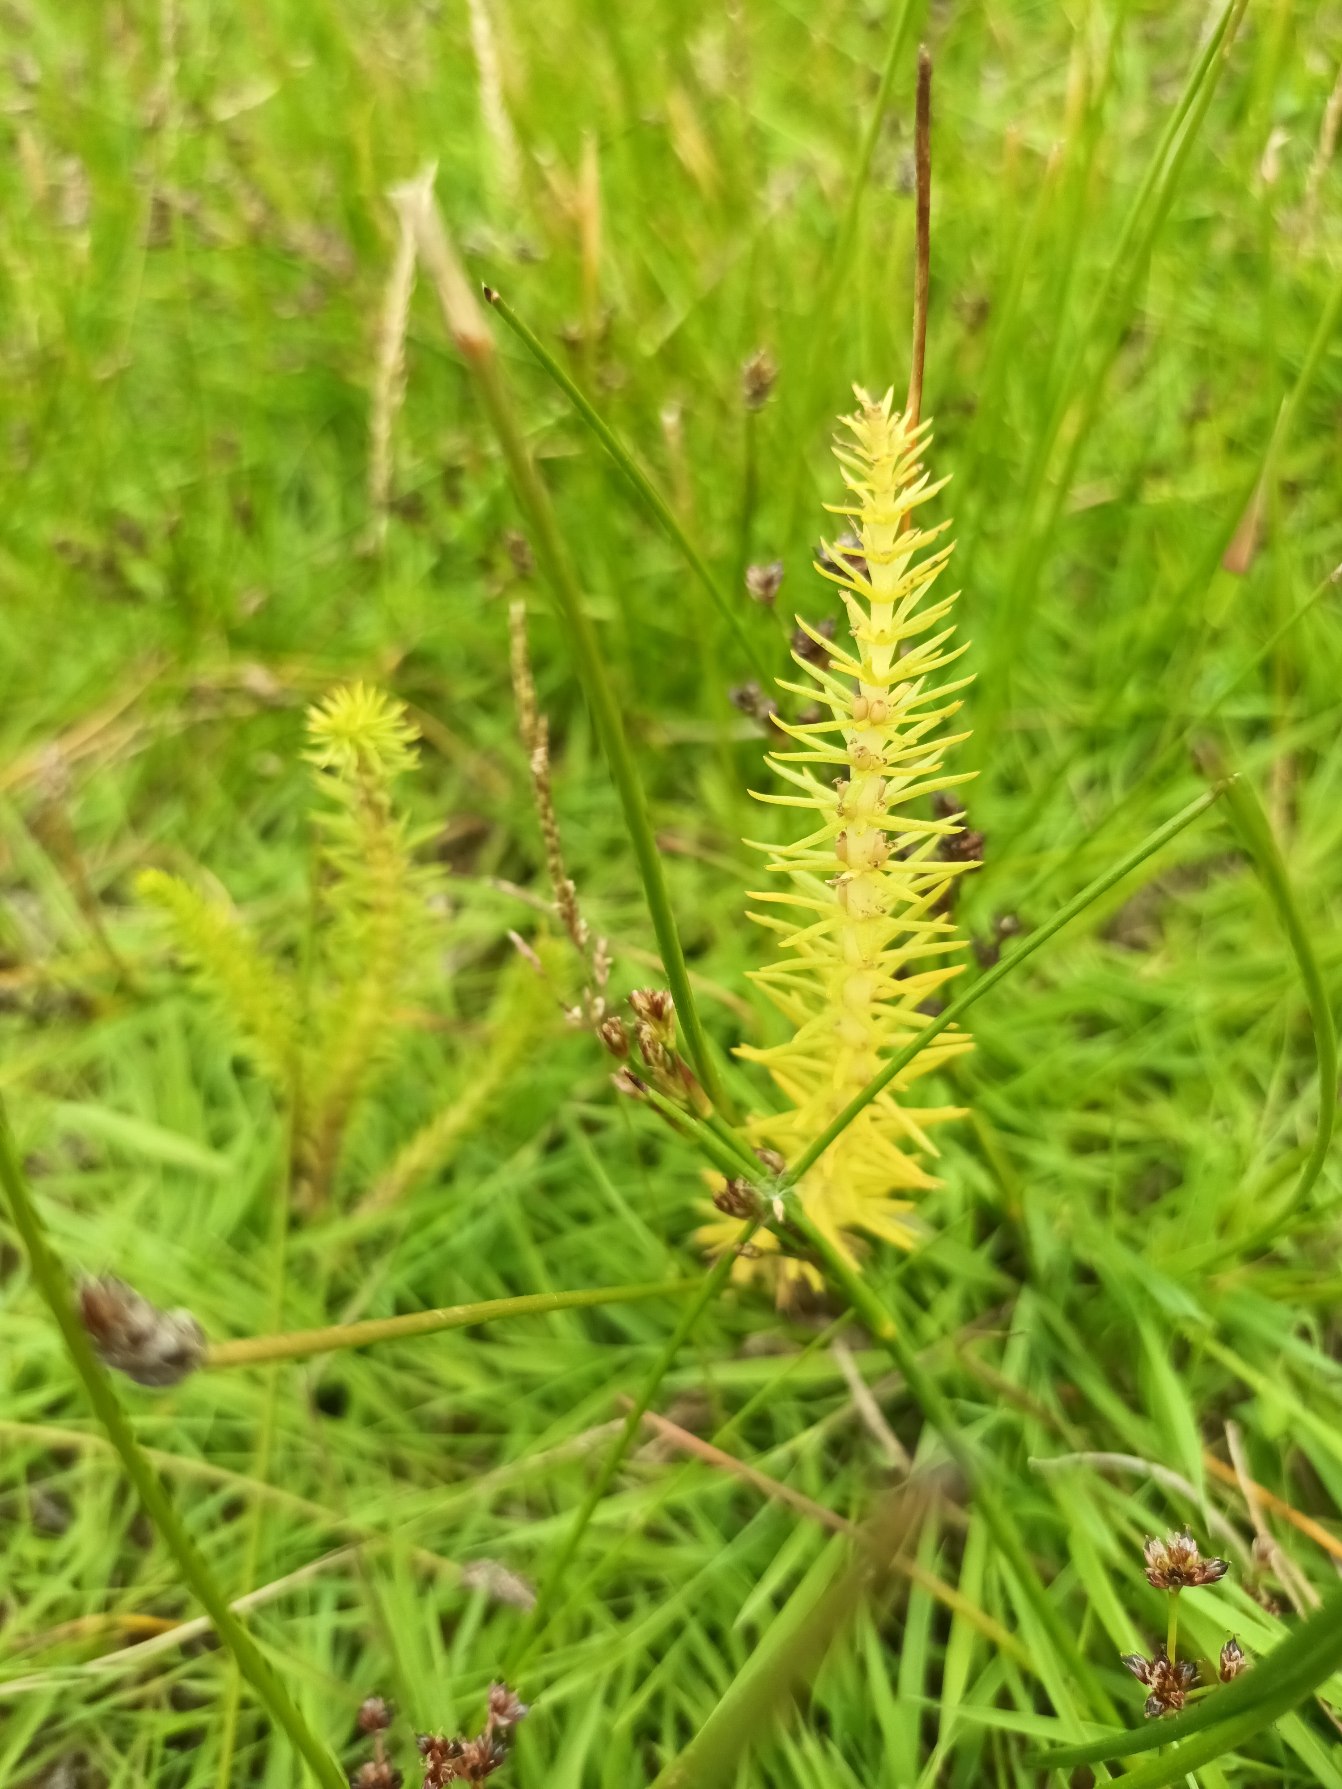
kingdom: Plantae
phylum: Tracheophyta
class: Magnoliopsida
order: Lamiales
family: Plantaginaceae
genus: Hippuris
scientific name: Hippuris vulgaris
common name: Vandspir
